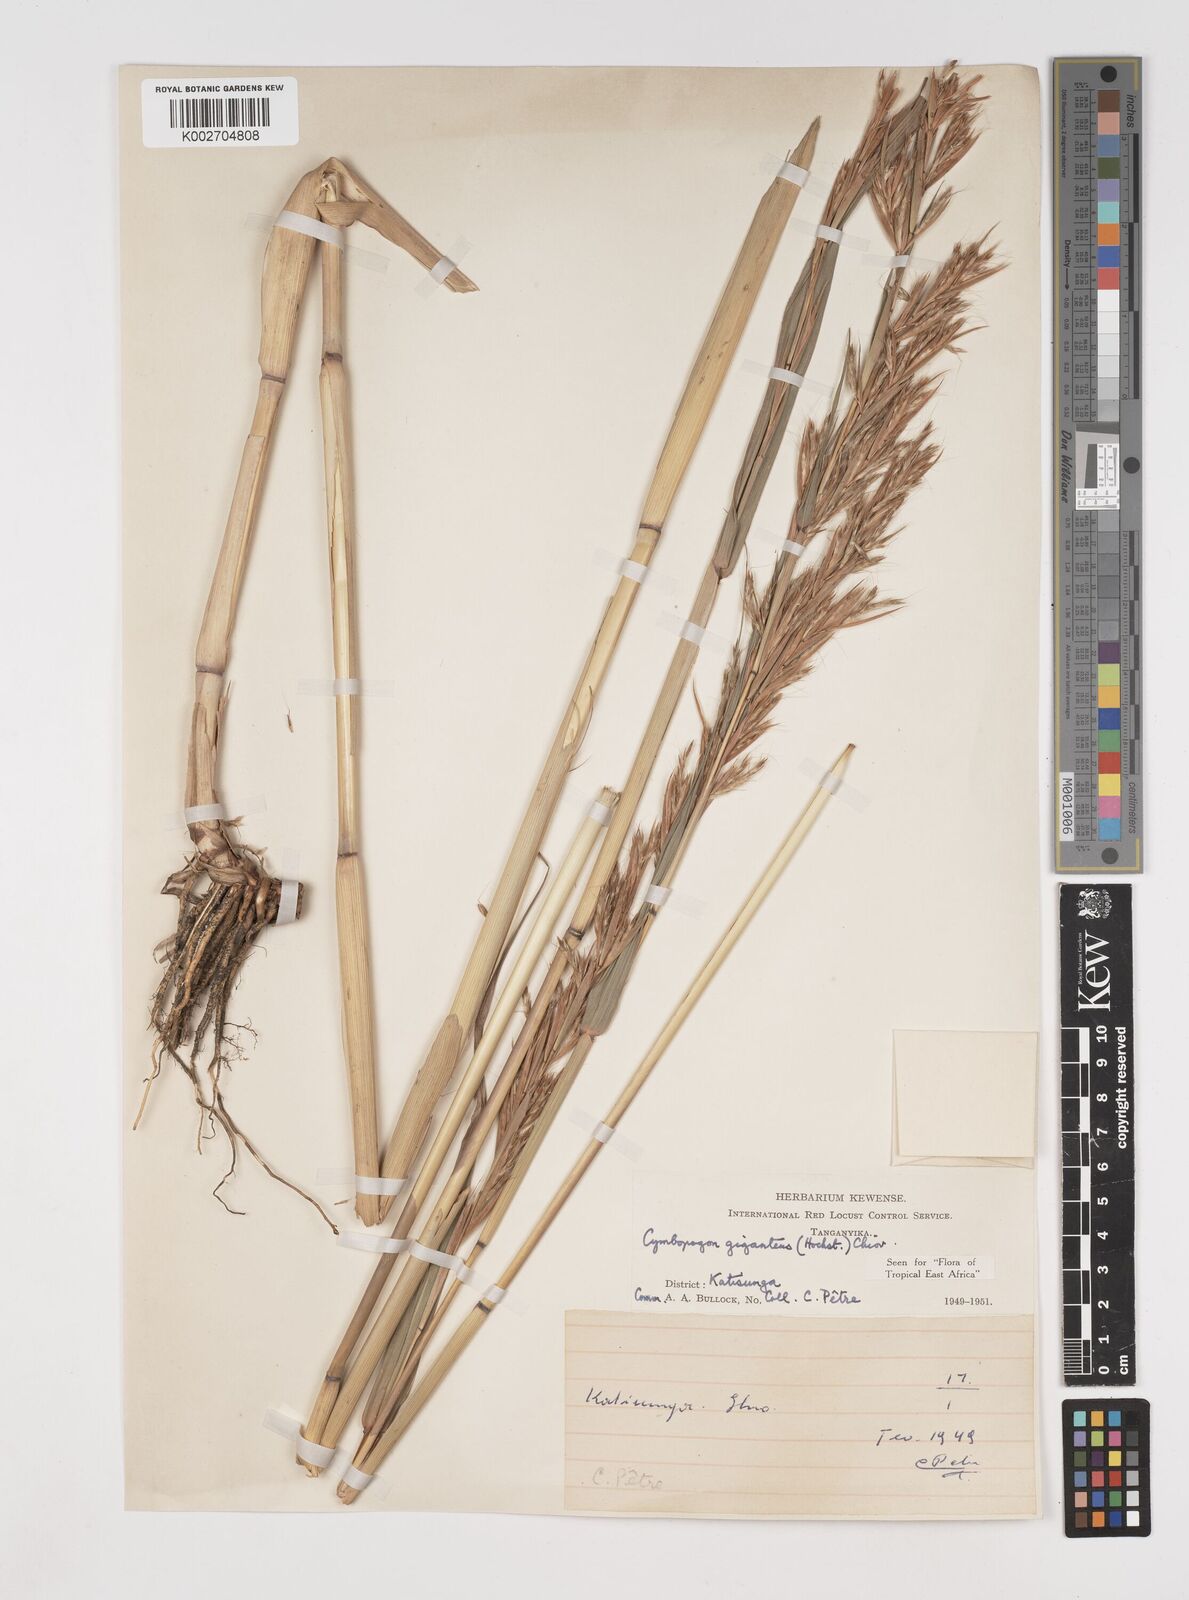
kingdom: Plantae
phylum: Tracheophyta
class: Liliopsida
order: Poales
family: Poaceae
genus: Cymbopogon
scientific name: Cymbopogon giganteus
